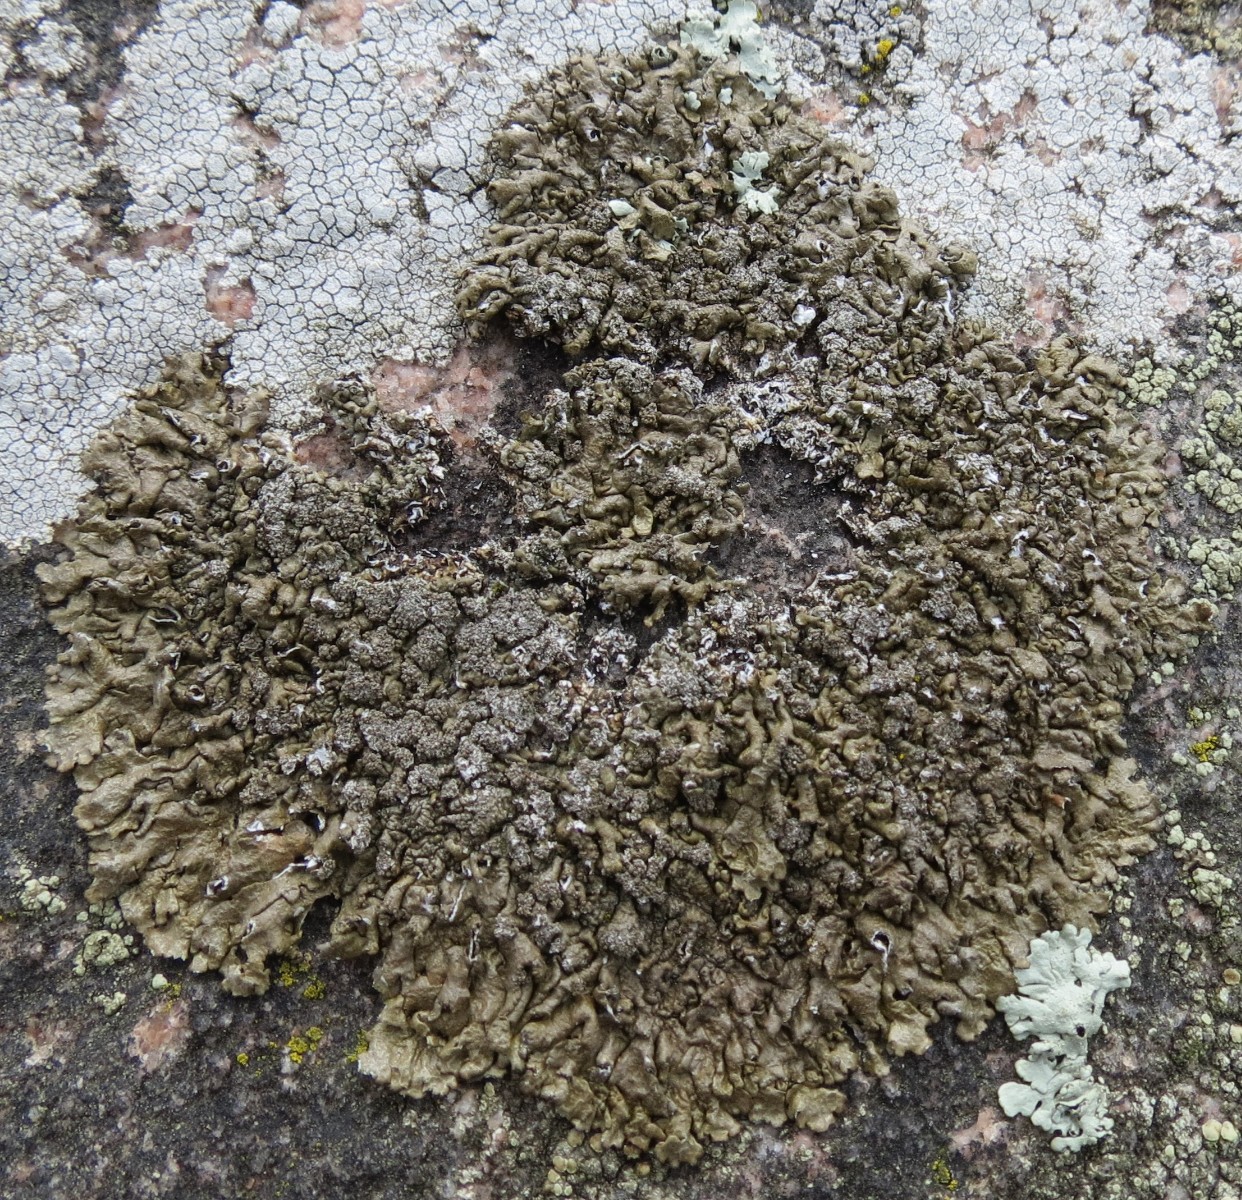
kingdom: Fungi
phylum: Ascomycota
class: Lecanoromycetes
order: Lecanorales
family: Parmeliaceae
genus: Xanthoparmelia
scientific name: Xanthoparmelia verruculifera
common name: småknoppet skållav
